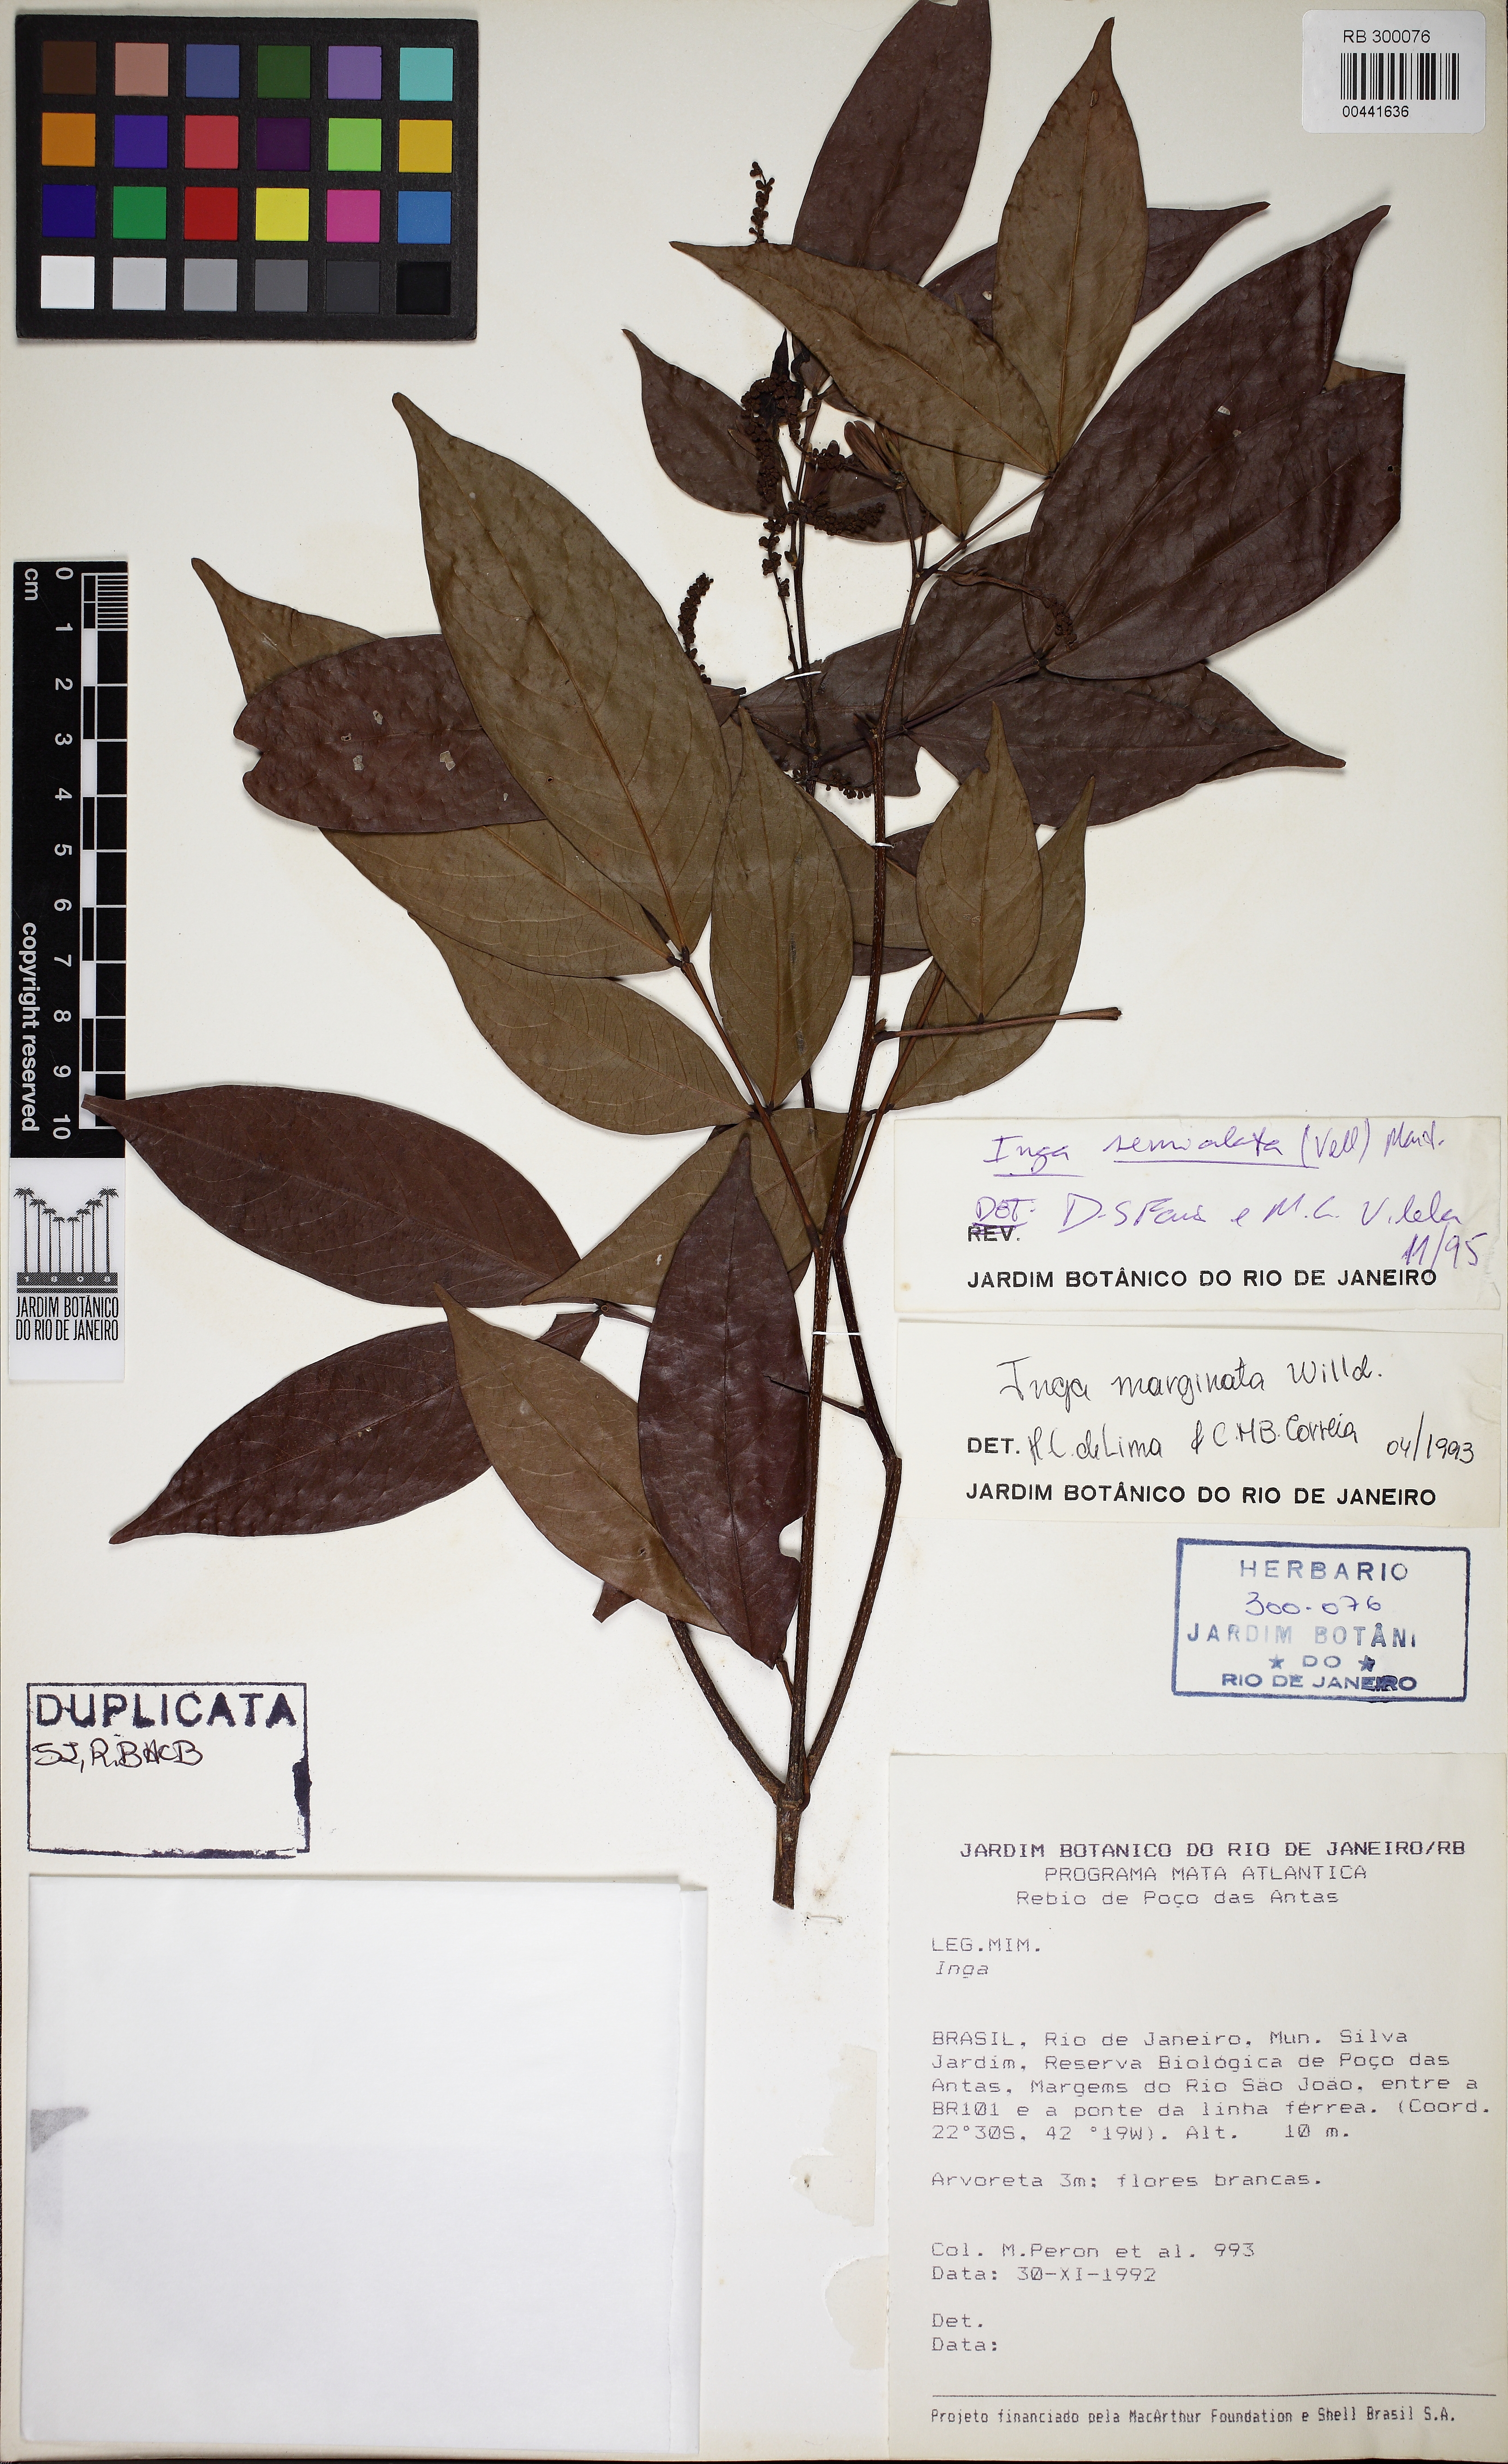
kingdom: Plantae
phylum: Tracheophyta
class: Magnoliopsida
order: Fabales
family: Fabaceae
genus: Inga
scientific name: Inga marginata
